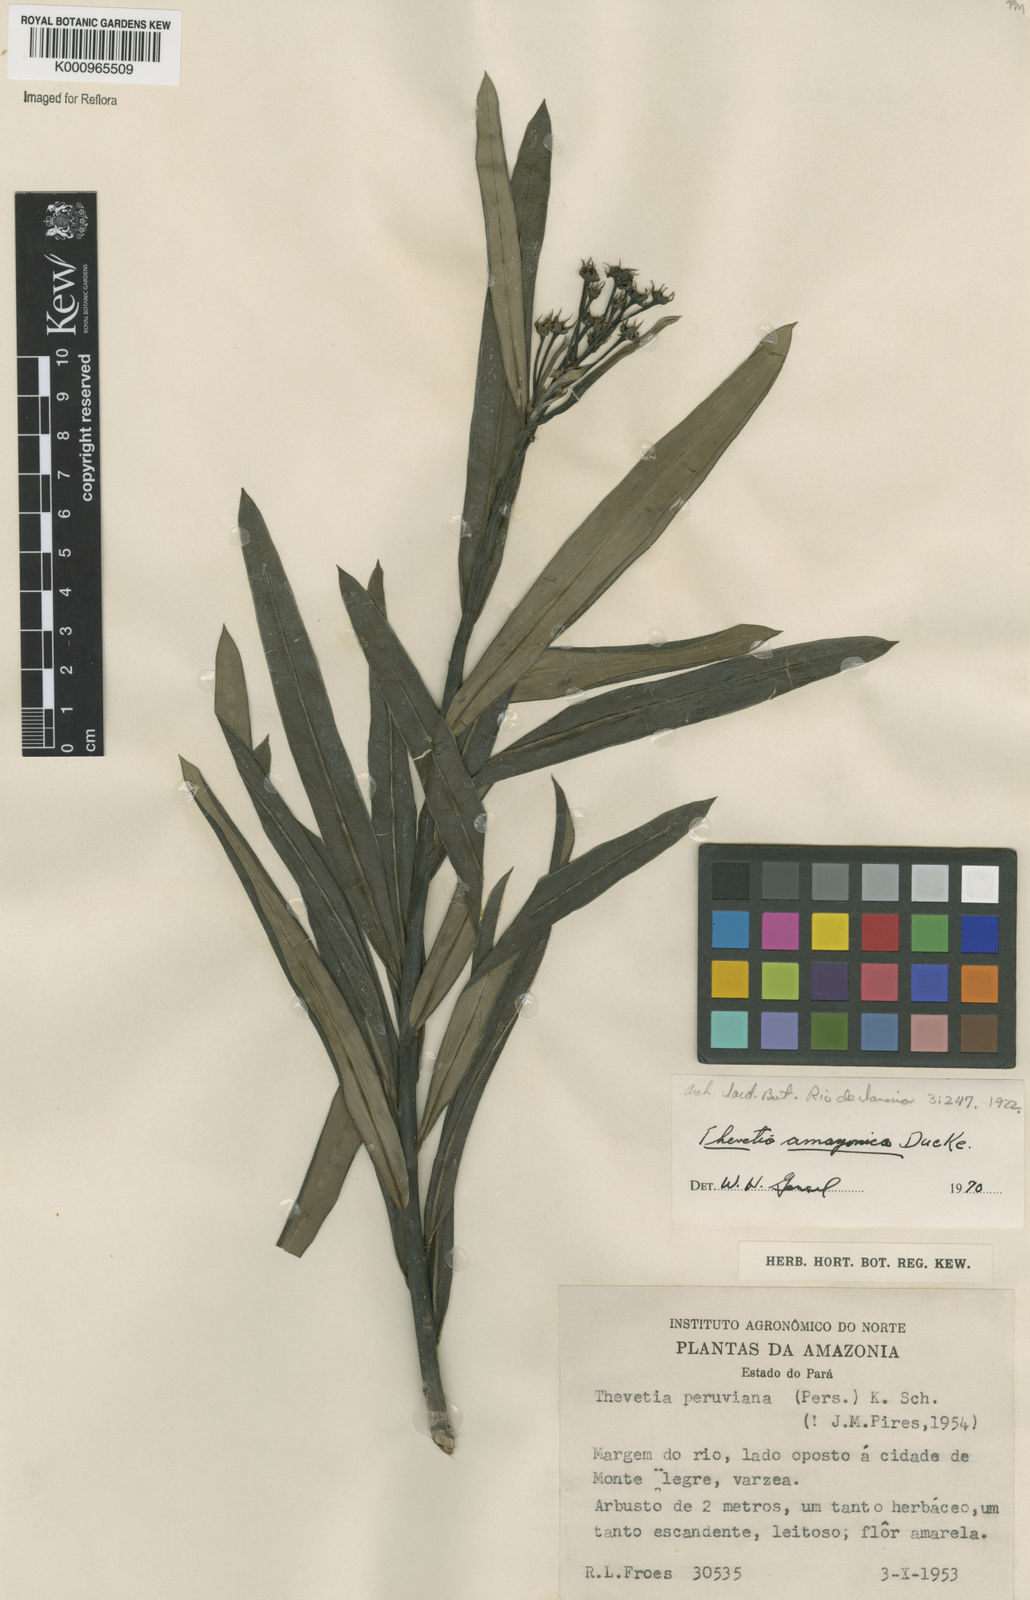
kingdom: Plantae
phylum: Tracheophyta
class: Magnoliopsida
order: Gentianales
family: Apocynaceae
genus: Thevetia
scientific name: Thevetia amazonica
